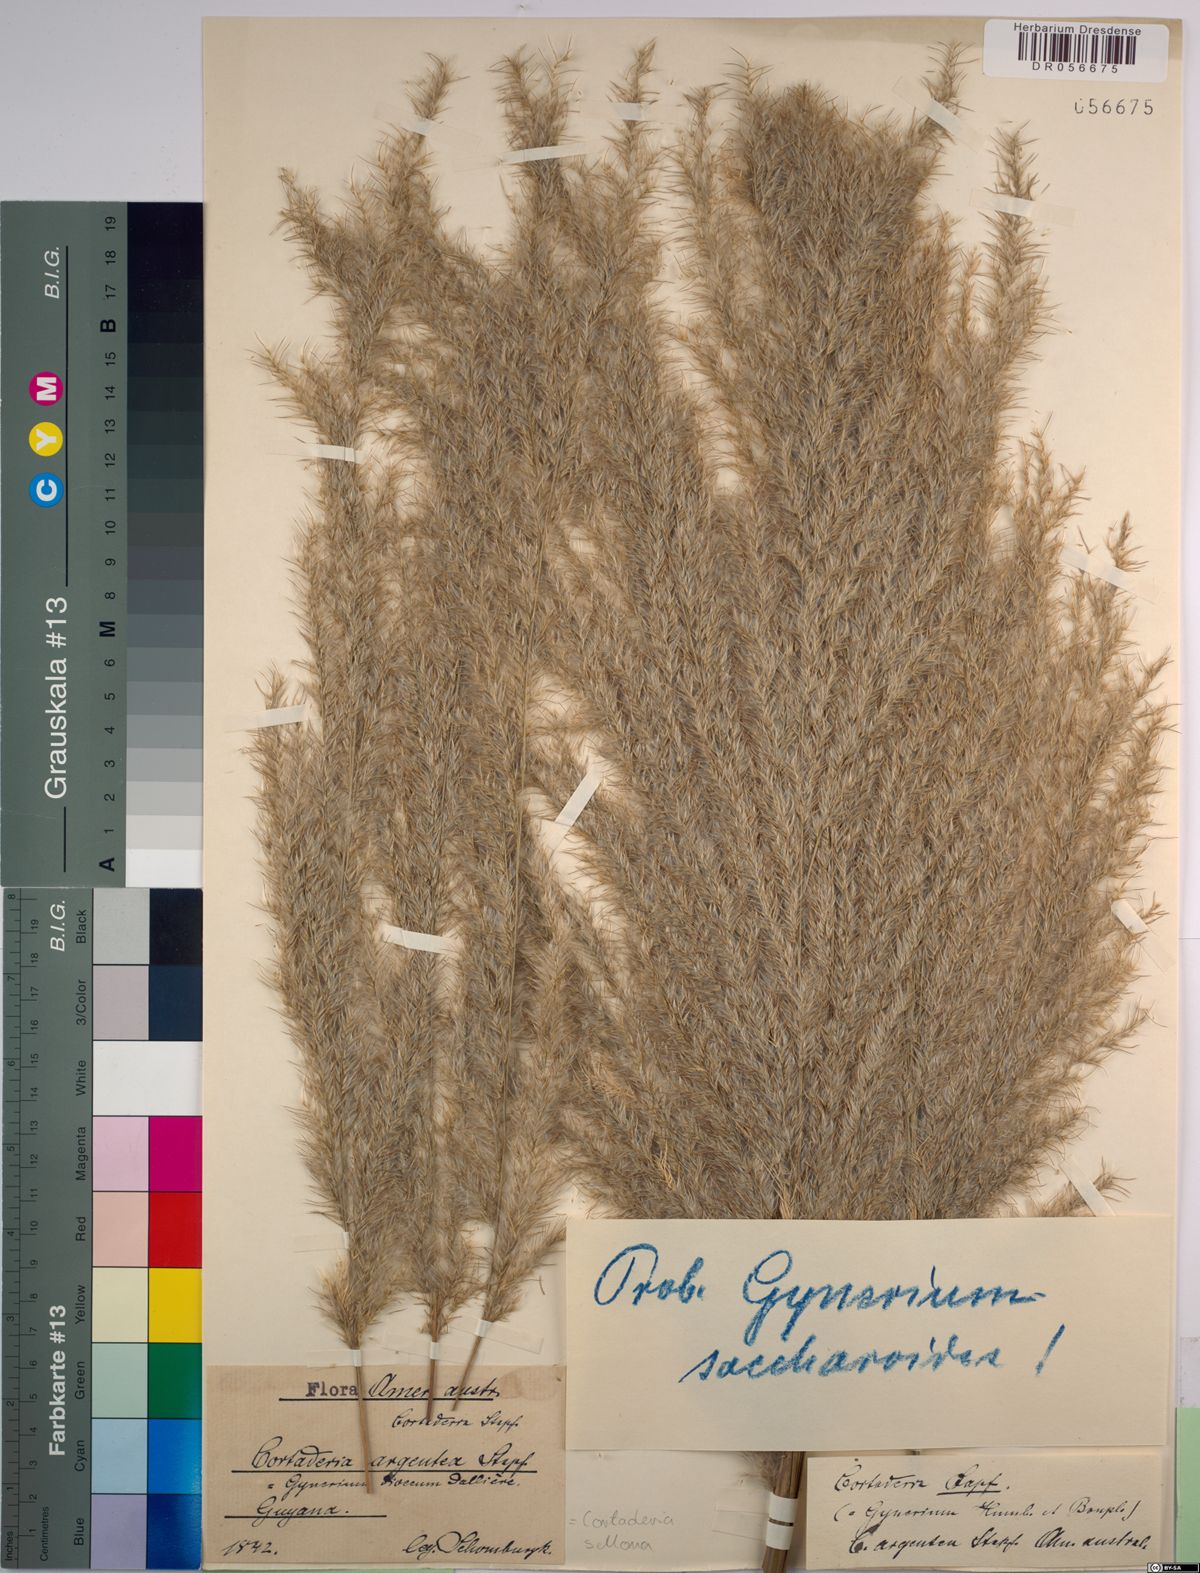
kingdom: Plantae
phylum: Tracheophyta
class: Liliopsida
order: Poales
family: Poaceae
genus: Cortaderia
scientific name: Cortaderia selloana
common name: Uruguayan pampas grass
